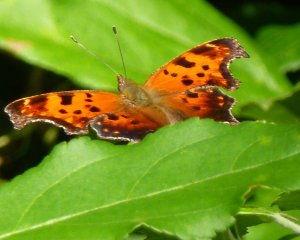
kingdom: Animalia
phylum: Arthropoda
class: Insecta
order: Lepidoptera
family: Nymphalidae
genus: Polygonia
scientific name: Polygonia comma
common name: Eastern Comma
